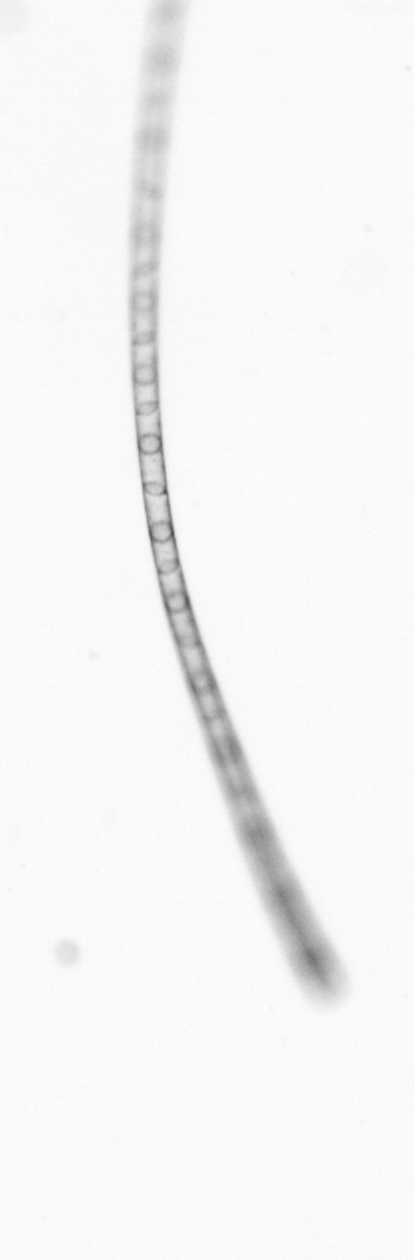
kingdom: Chromista
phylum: Ochrophyta
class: Bacillariophyceae
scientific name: Bacillariophyceae
